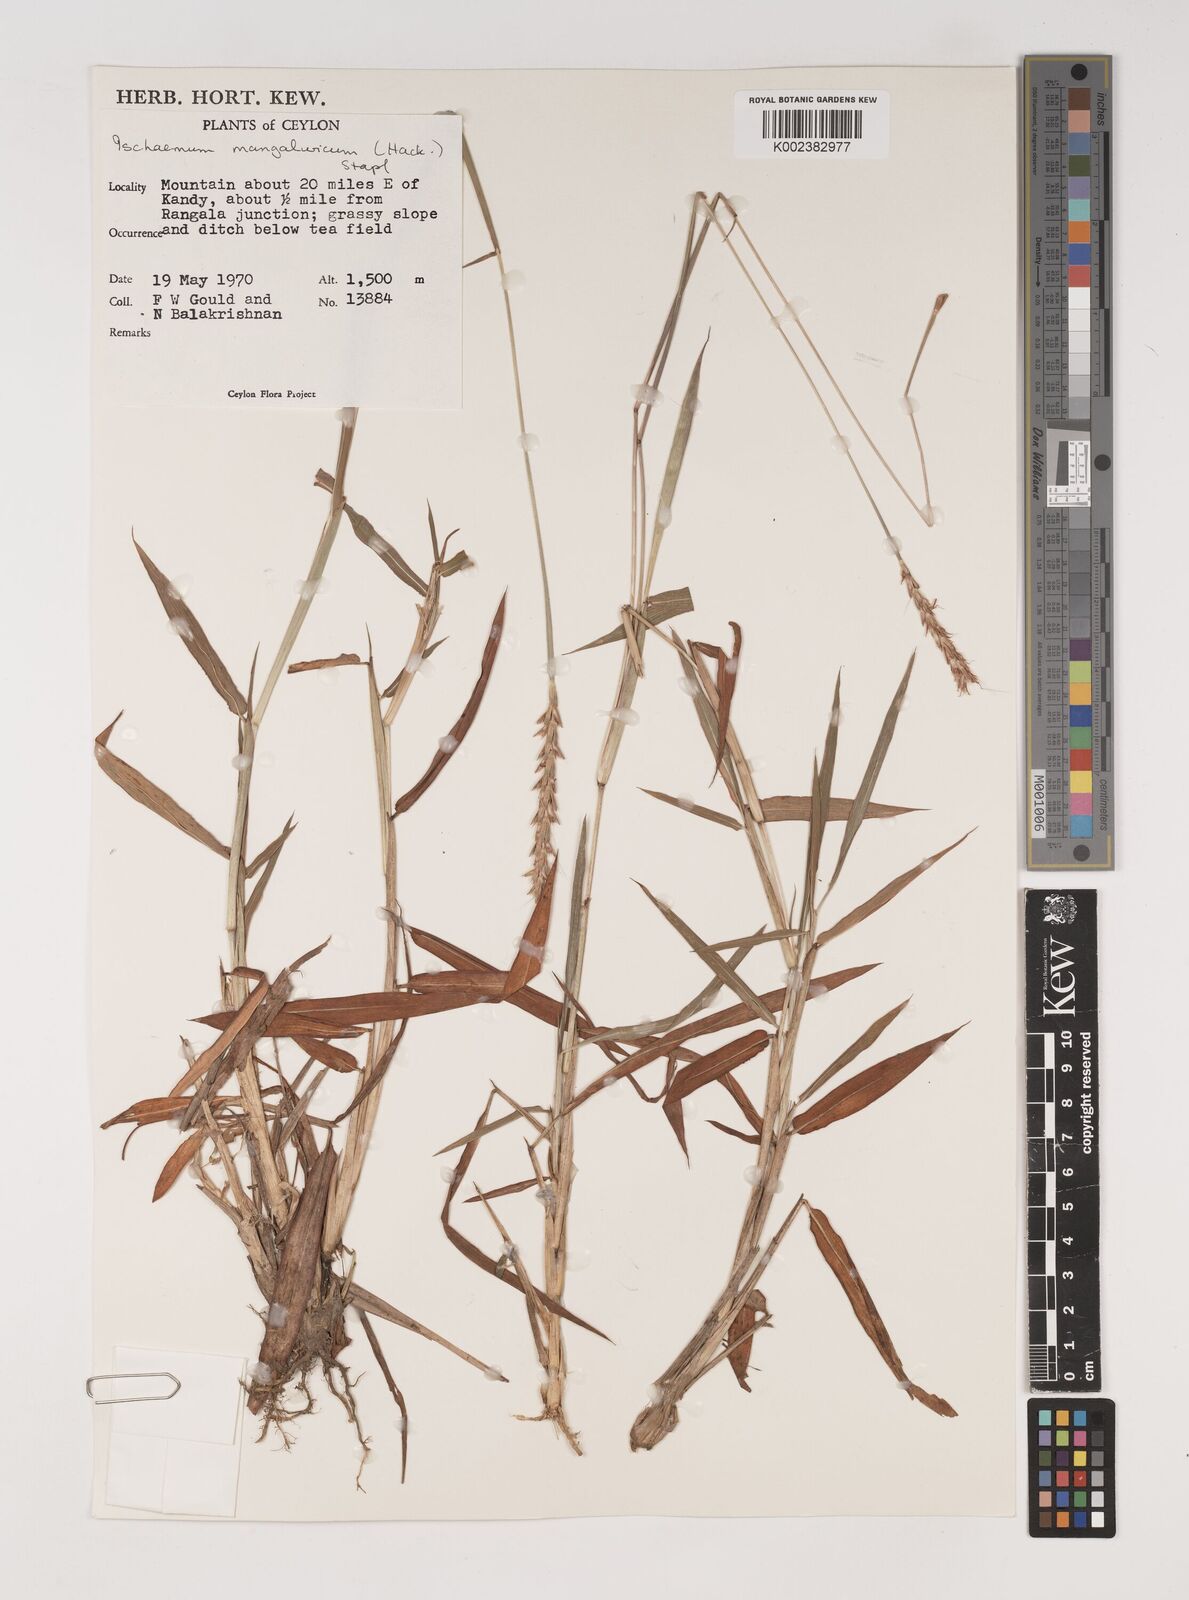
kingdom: Plantae
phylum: Tracheophyta
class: Liliopsida
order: Poales
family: Poaceae
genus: Ischaemum
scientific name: Ischaemum barbatum
